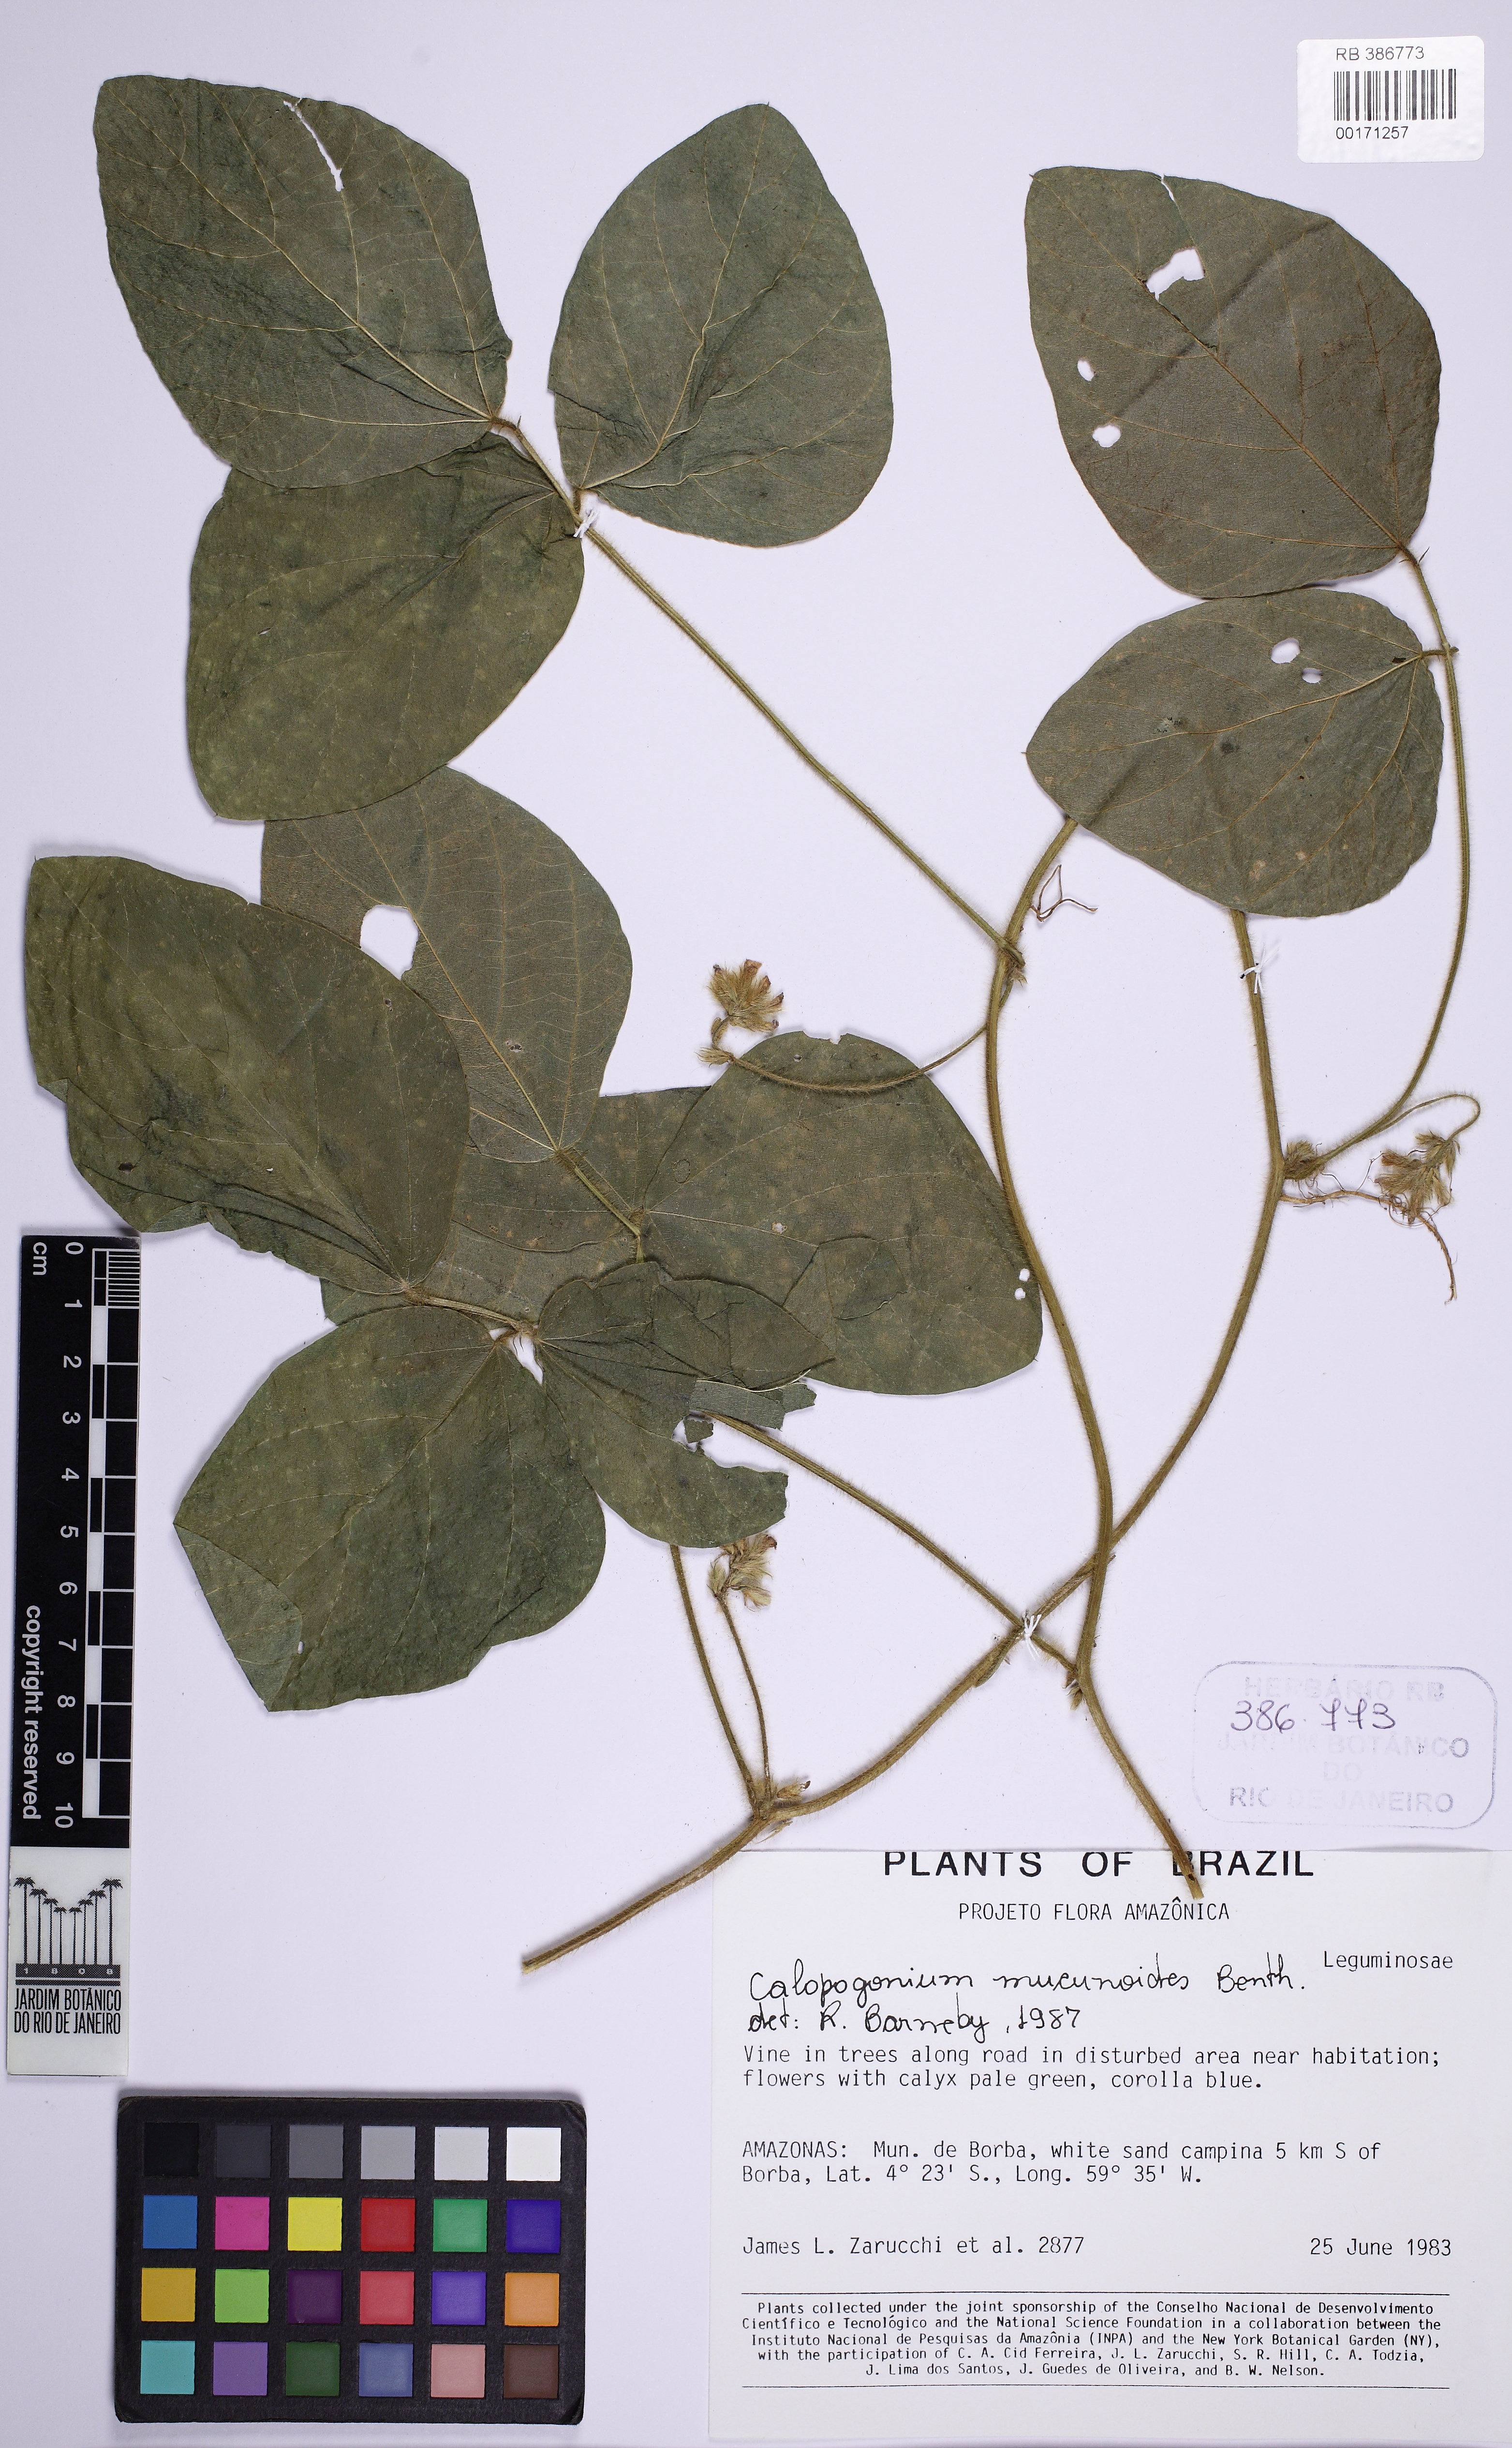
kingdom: Plantae
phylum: Tracheophyta
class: Magnoliopsida
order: Fabales
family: Fabaceae
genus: Calopogonium
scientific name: Calopogonium mucunoides
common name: Calopo
